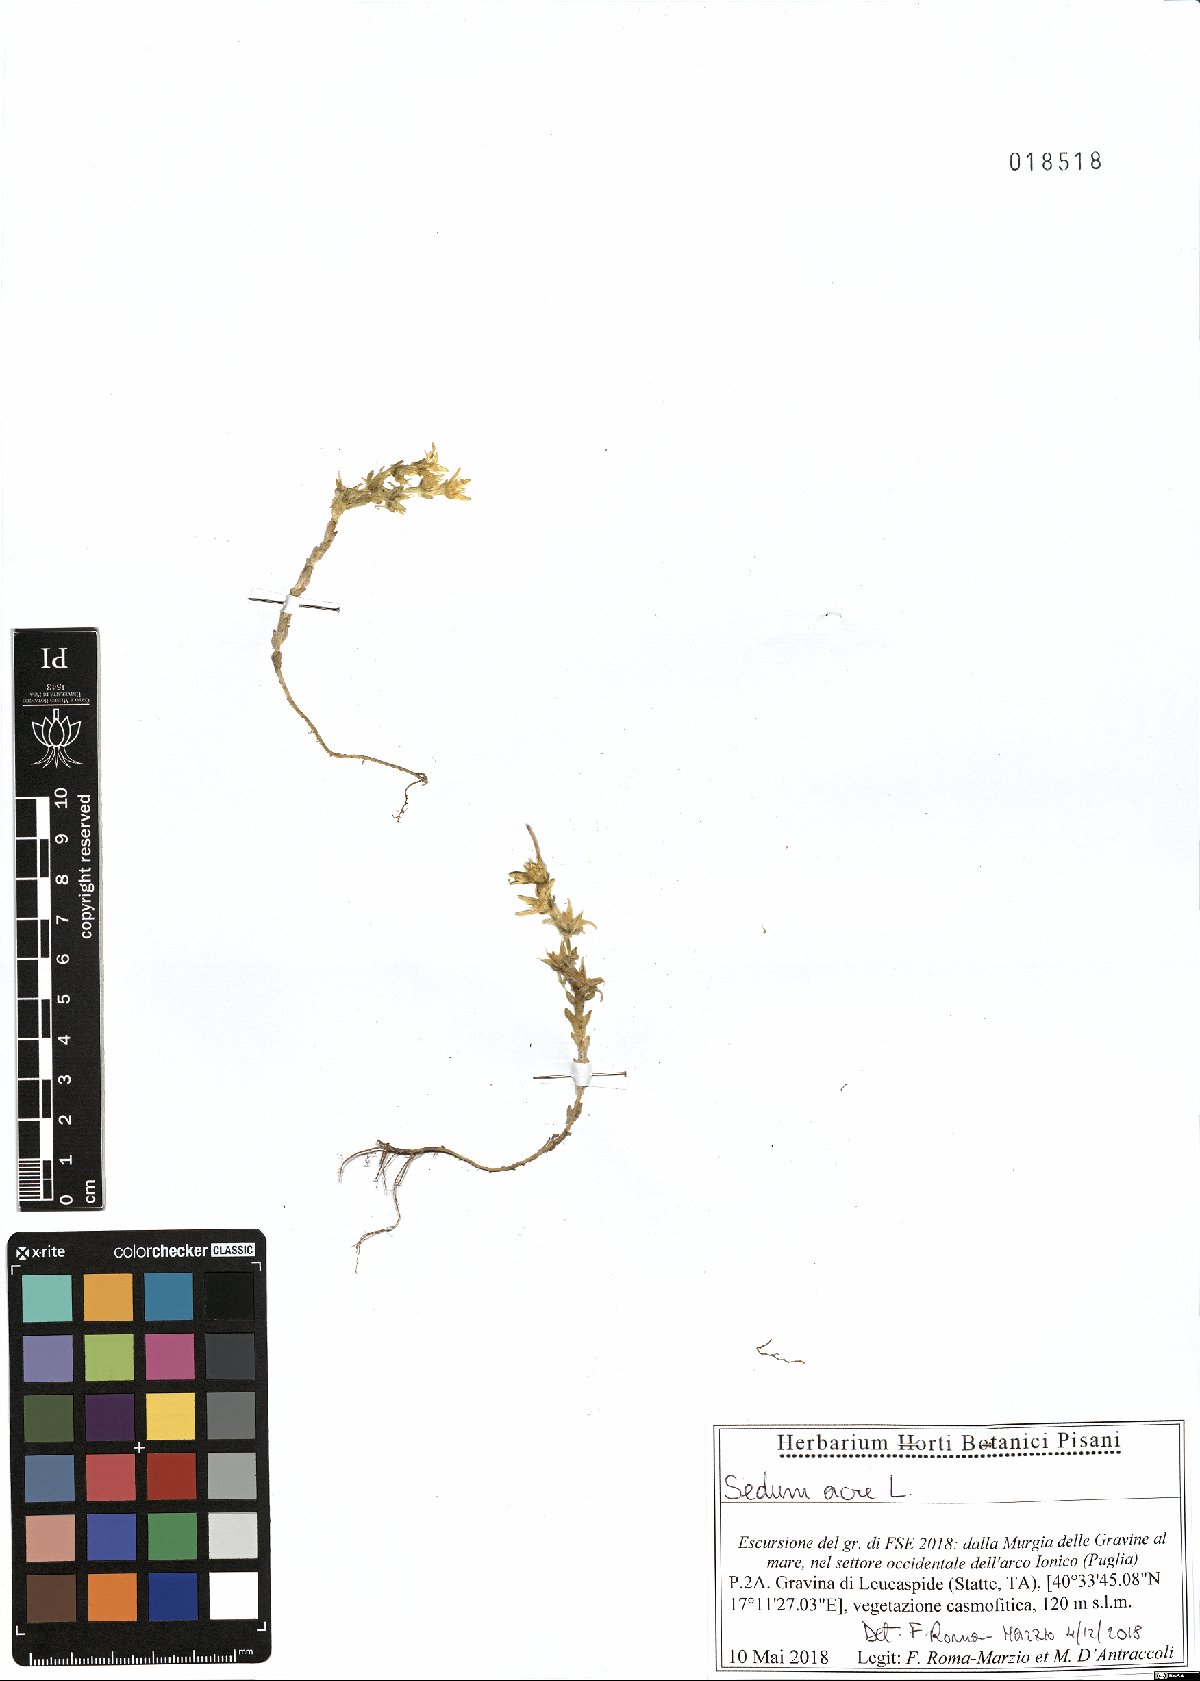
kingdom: Plantae
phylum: Tracheophyta
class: Magnoliopsida
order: Saxifragales
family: Crassulaceae
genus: Sedum
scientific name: Sedum acre
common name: Biting stonecrop
